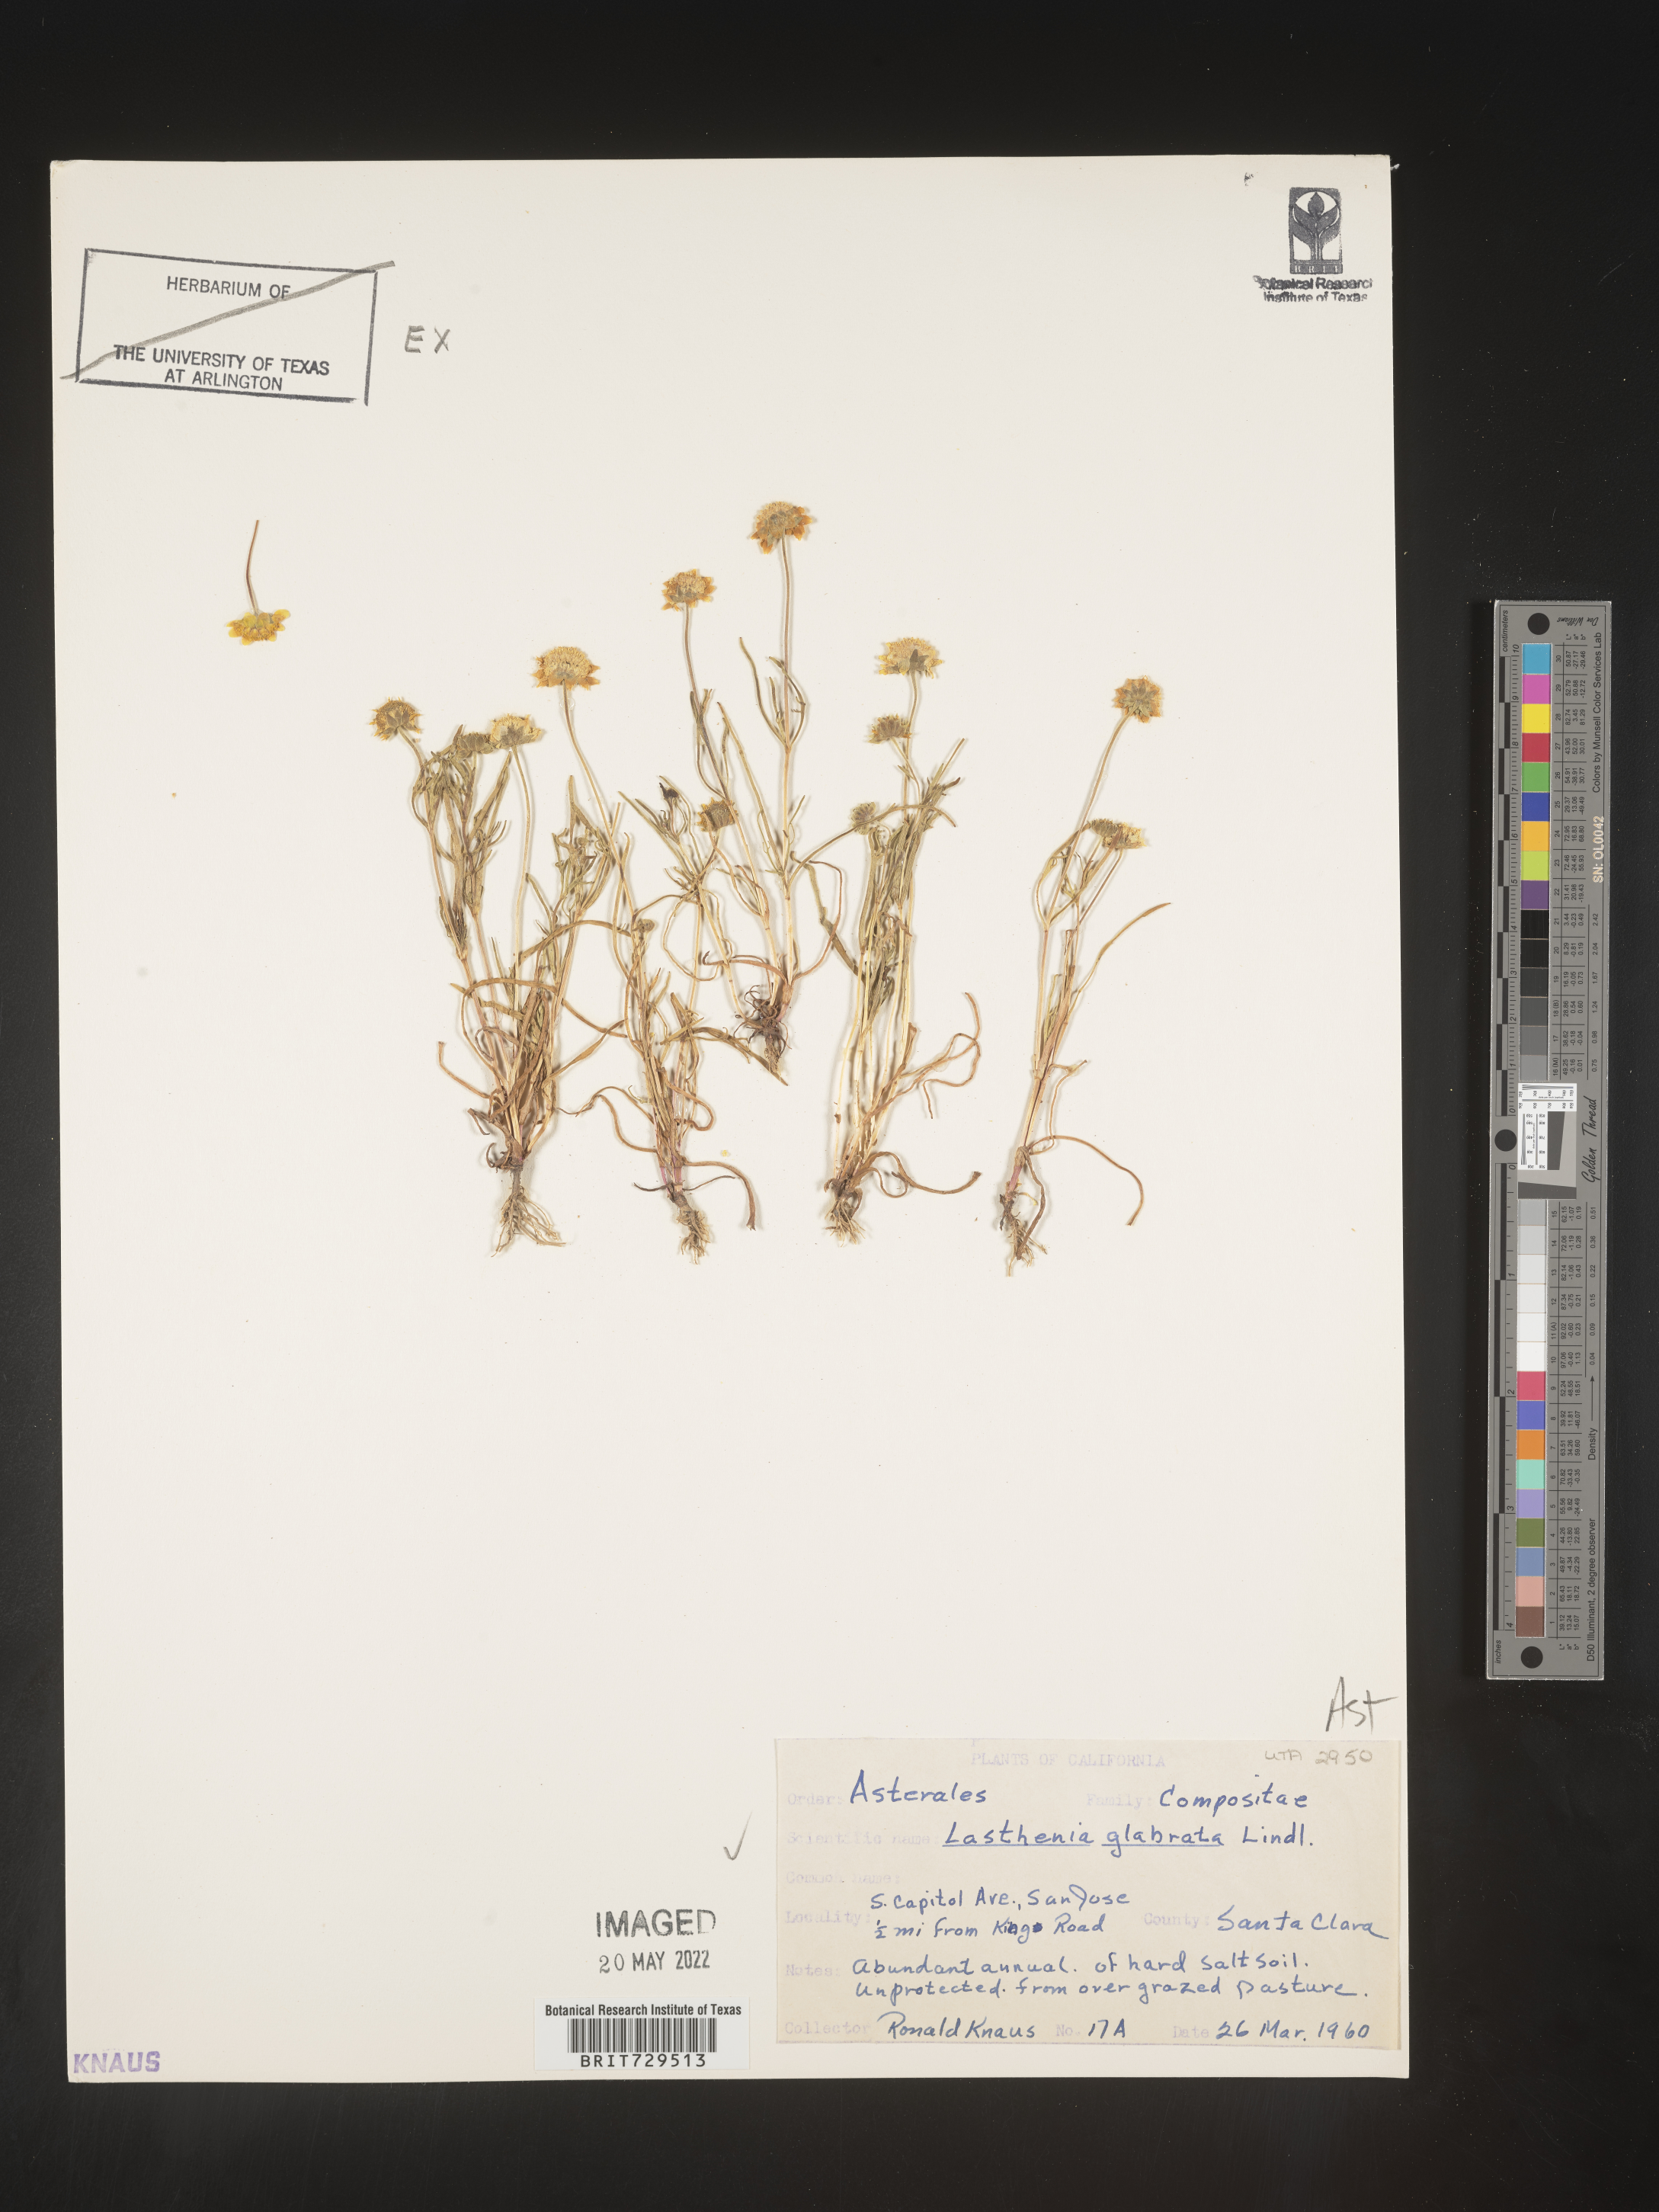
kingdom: Plantae
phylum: Tracheophyta
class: Magnoliopsida
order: Asterales
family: Asteraceae
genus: Lasthenia
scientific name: Lasthenia
